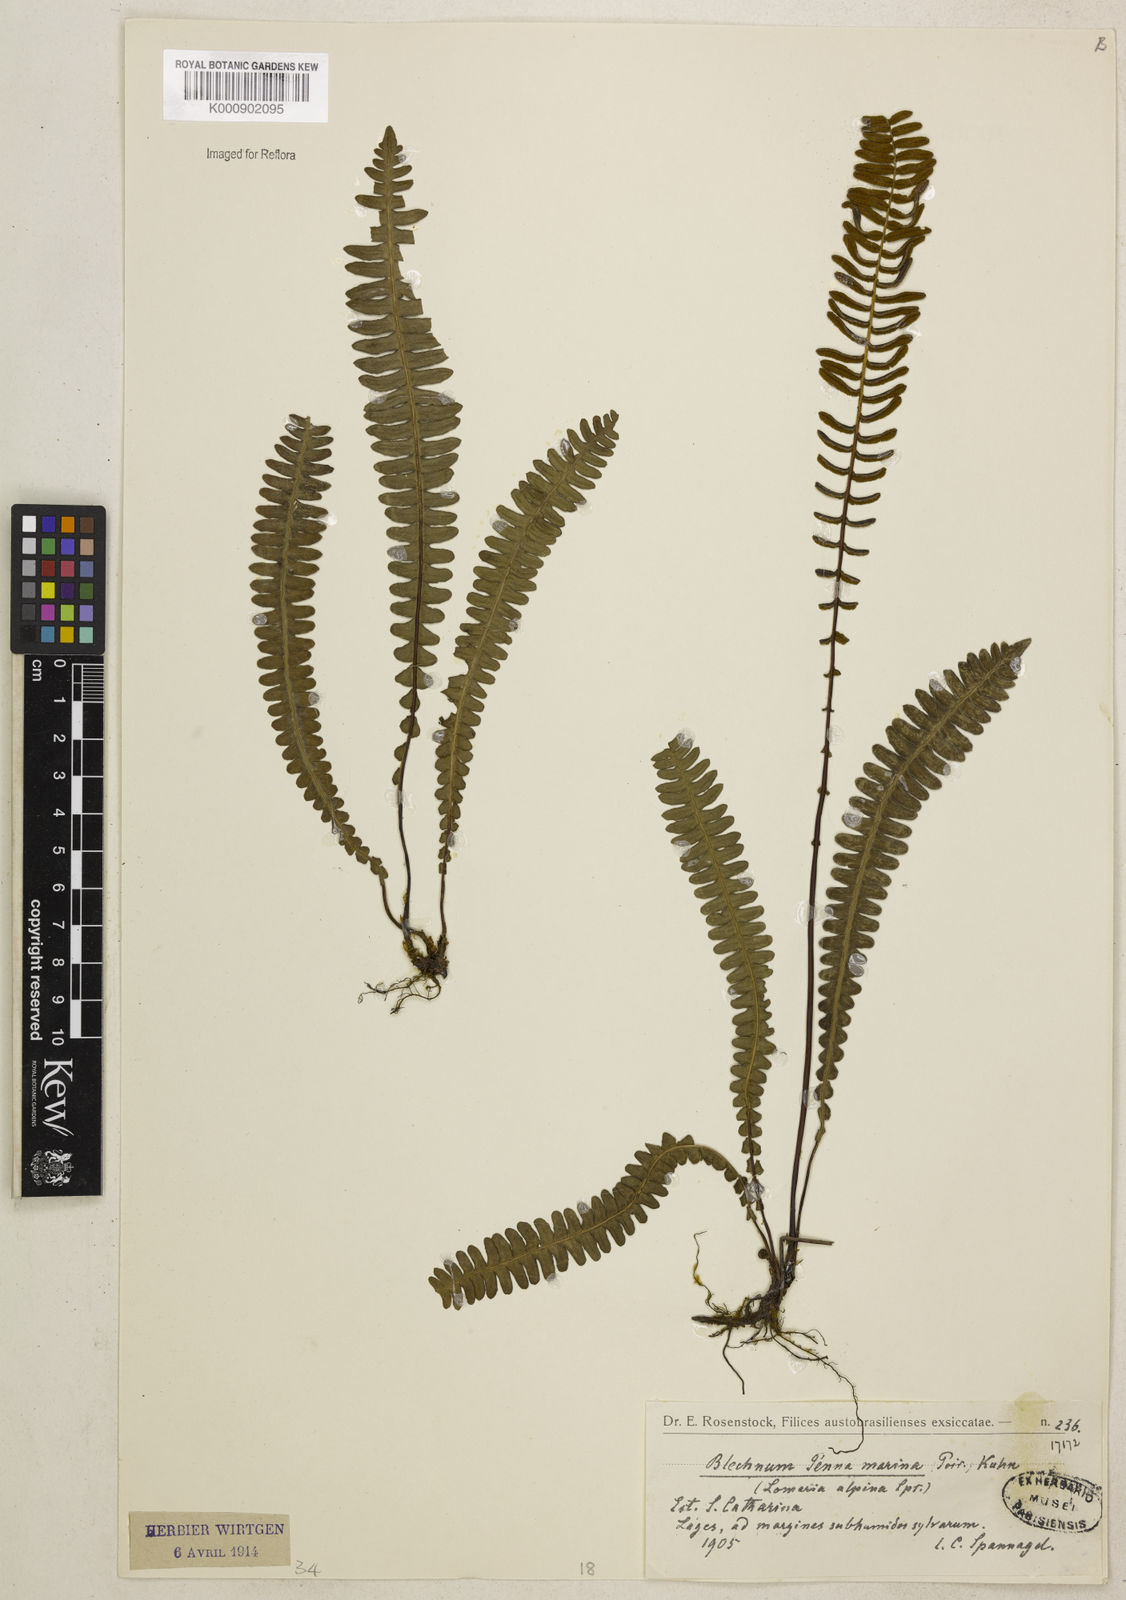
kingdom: Plantae
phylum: Tracheophyta
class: Polypodiopsida
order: Polypodiales
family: Blechnaceae
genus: Austroblechnum
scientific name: Austroblechnum penna-marina
